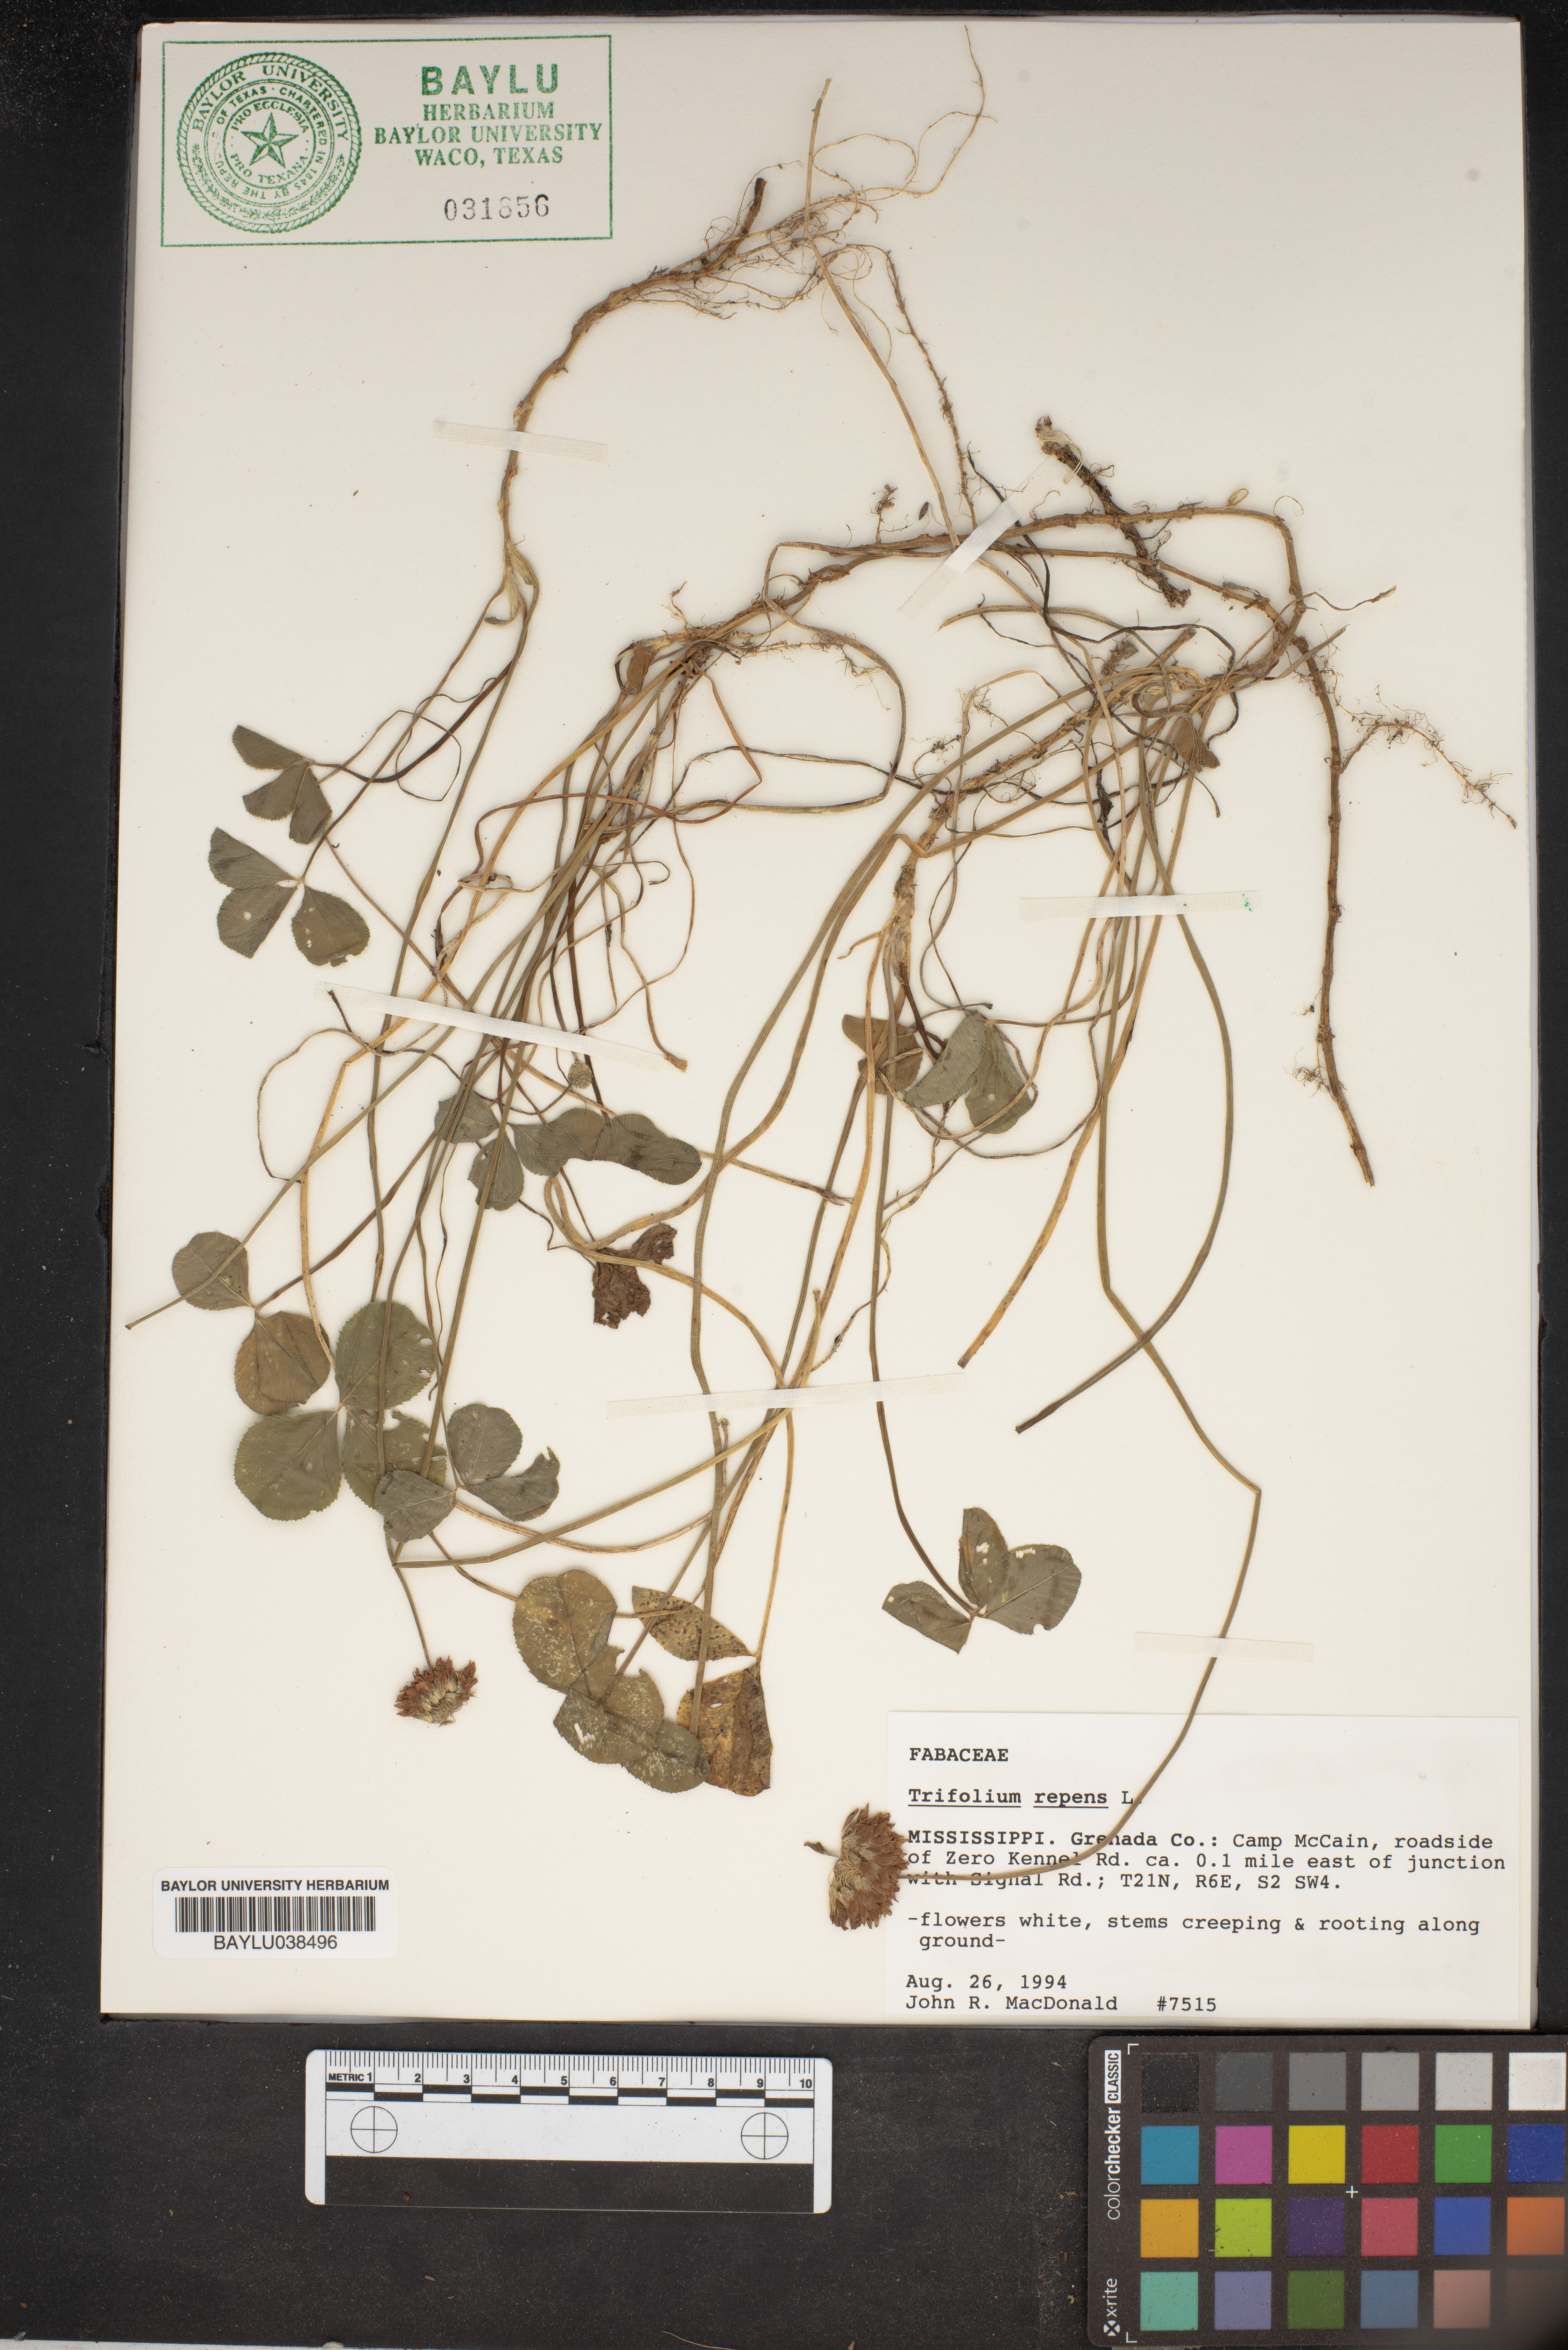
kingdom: Plantae
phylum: Tracheophyta
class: Magnoliopsida
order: Fabales
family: Fabaceae
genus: Trifolium
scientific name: Trifolium repens
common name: White clover
